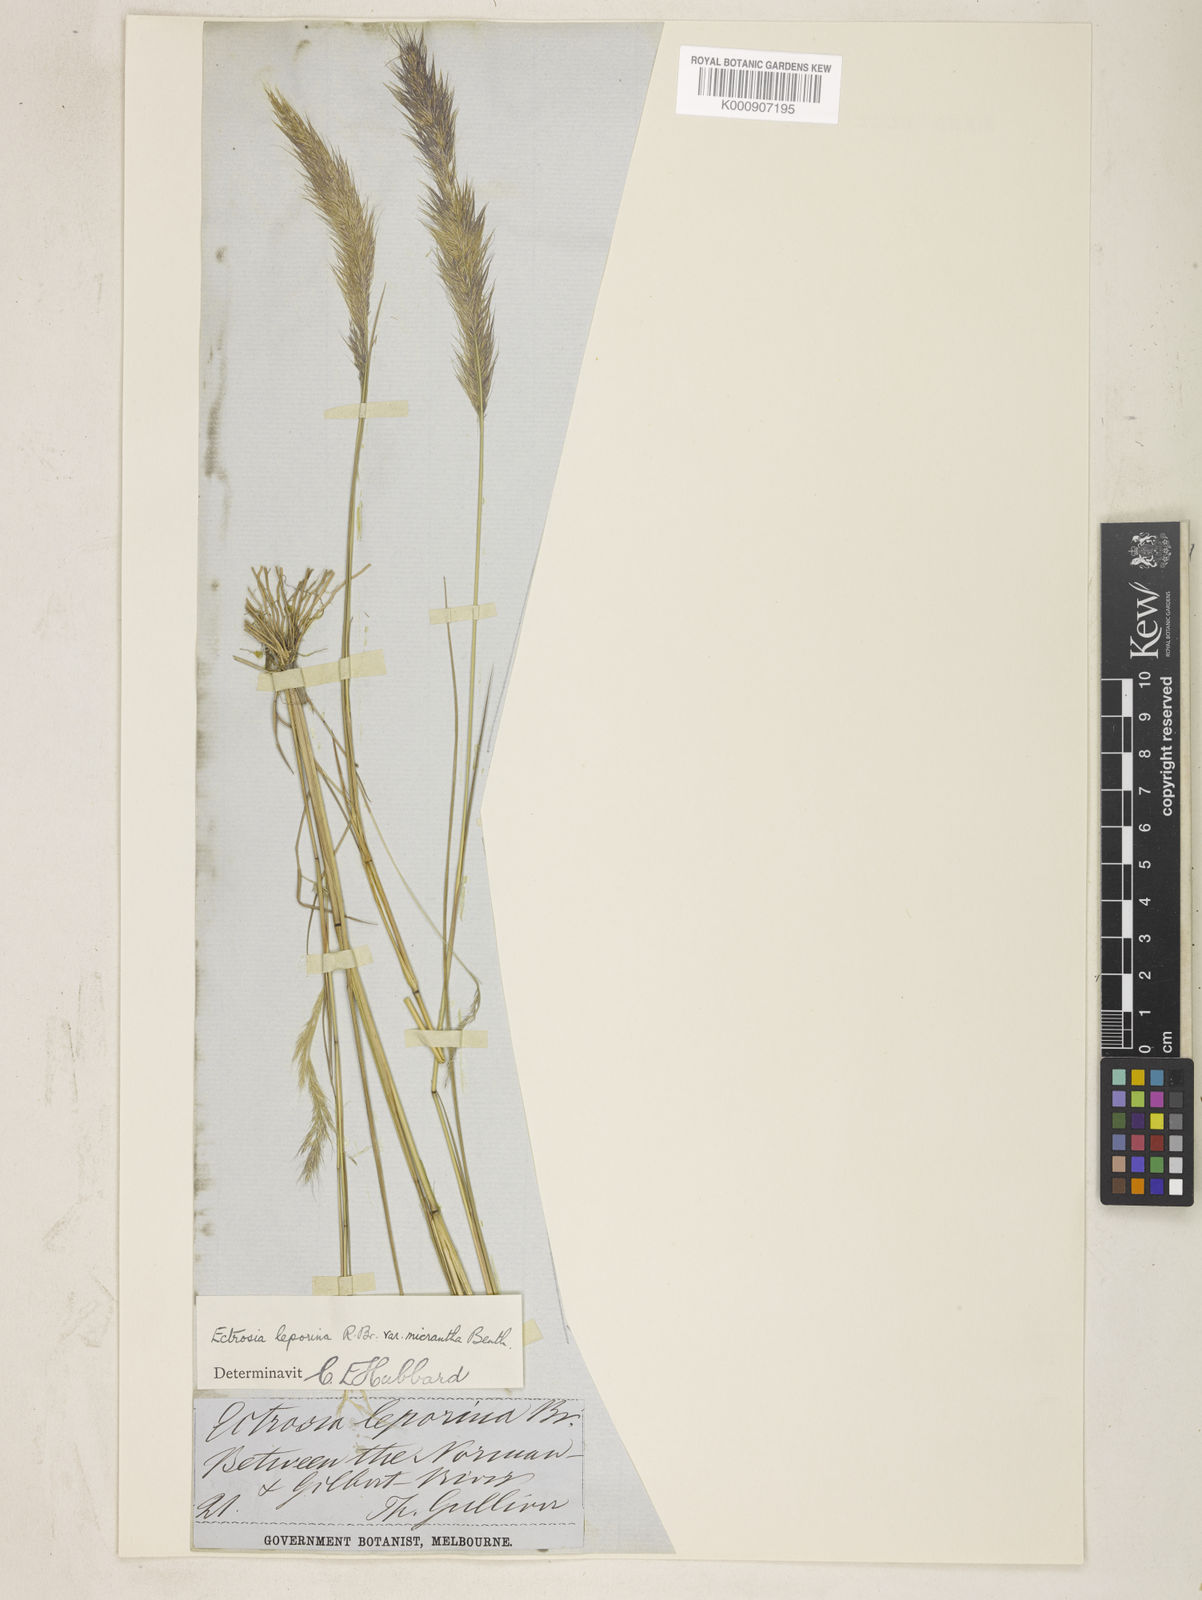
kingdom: Plantae
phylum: Tracheophyta
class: Liliopsida
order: Poales
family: Poaceae
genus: Eragrostis
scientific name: Eragrostis leporina
